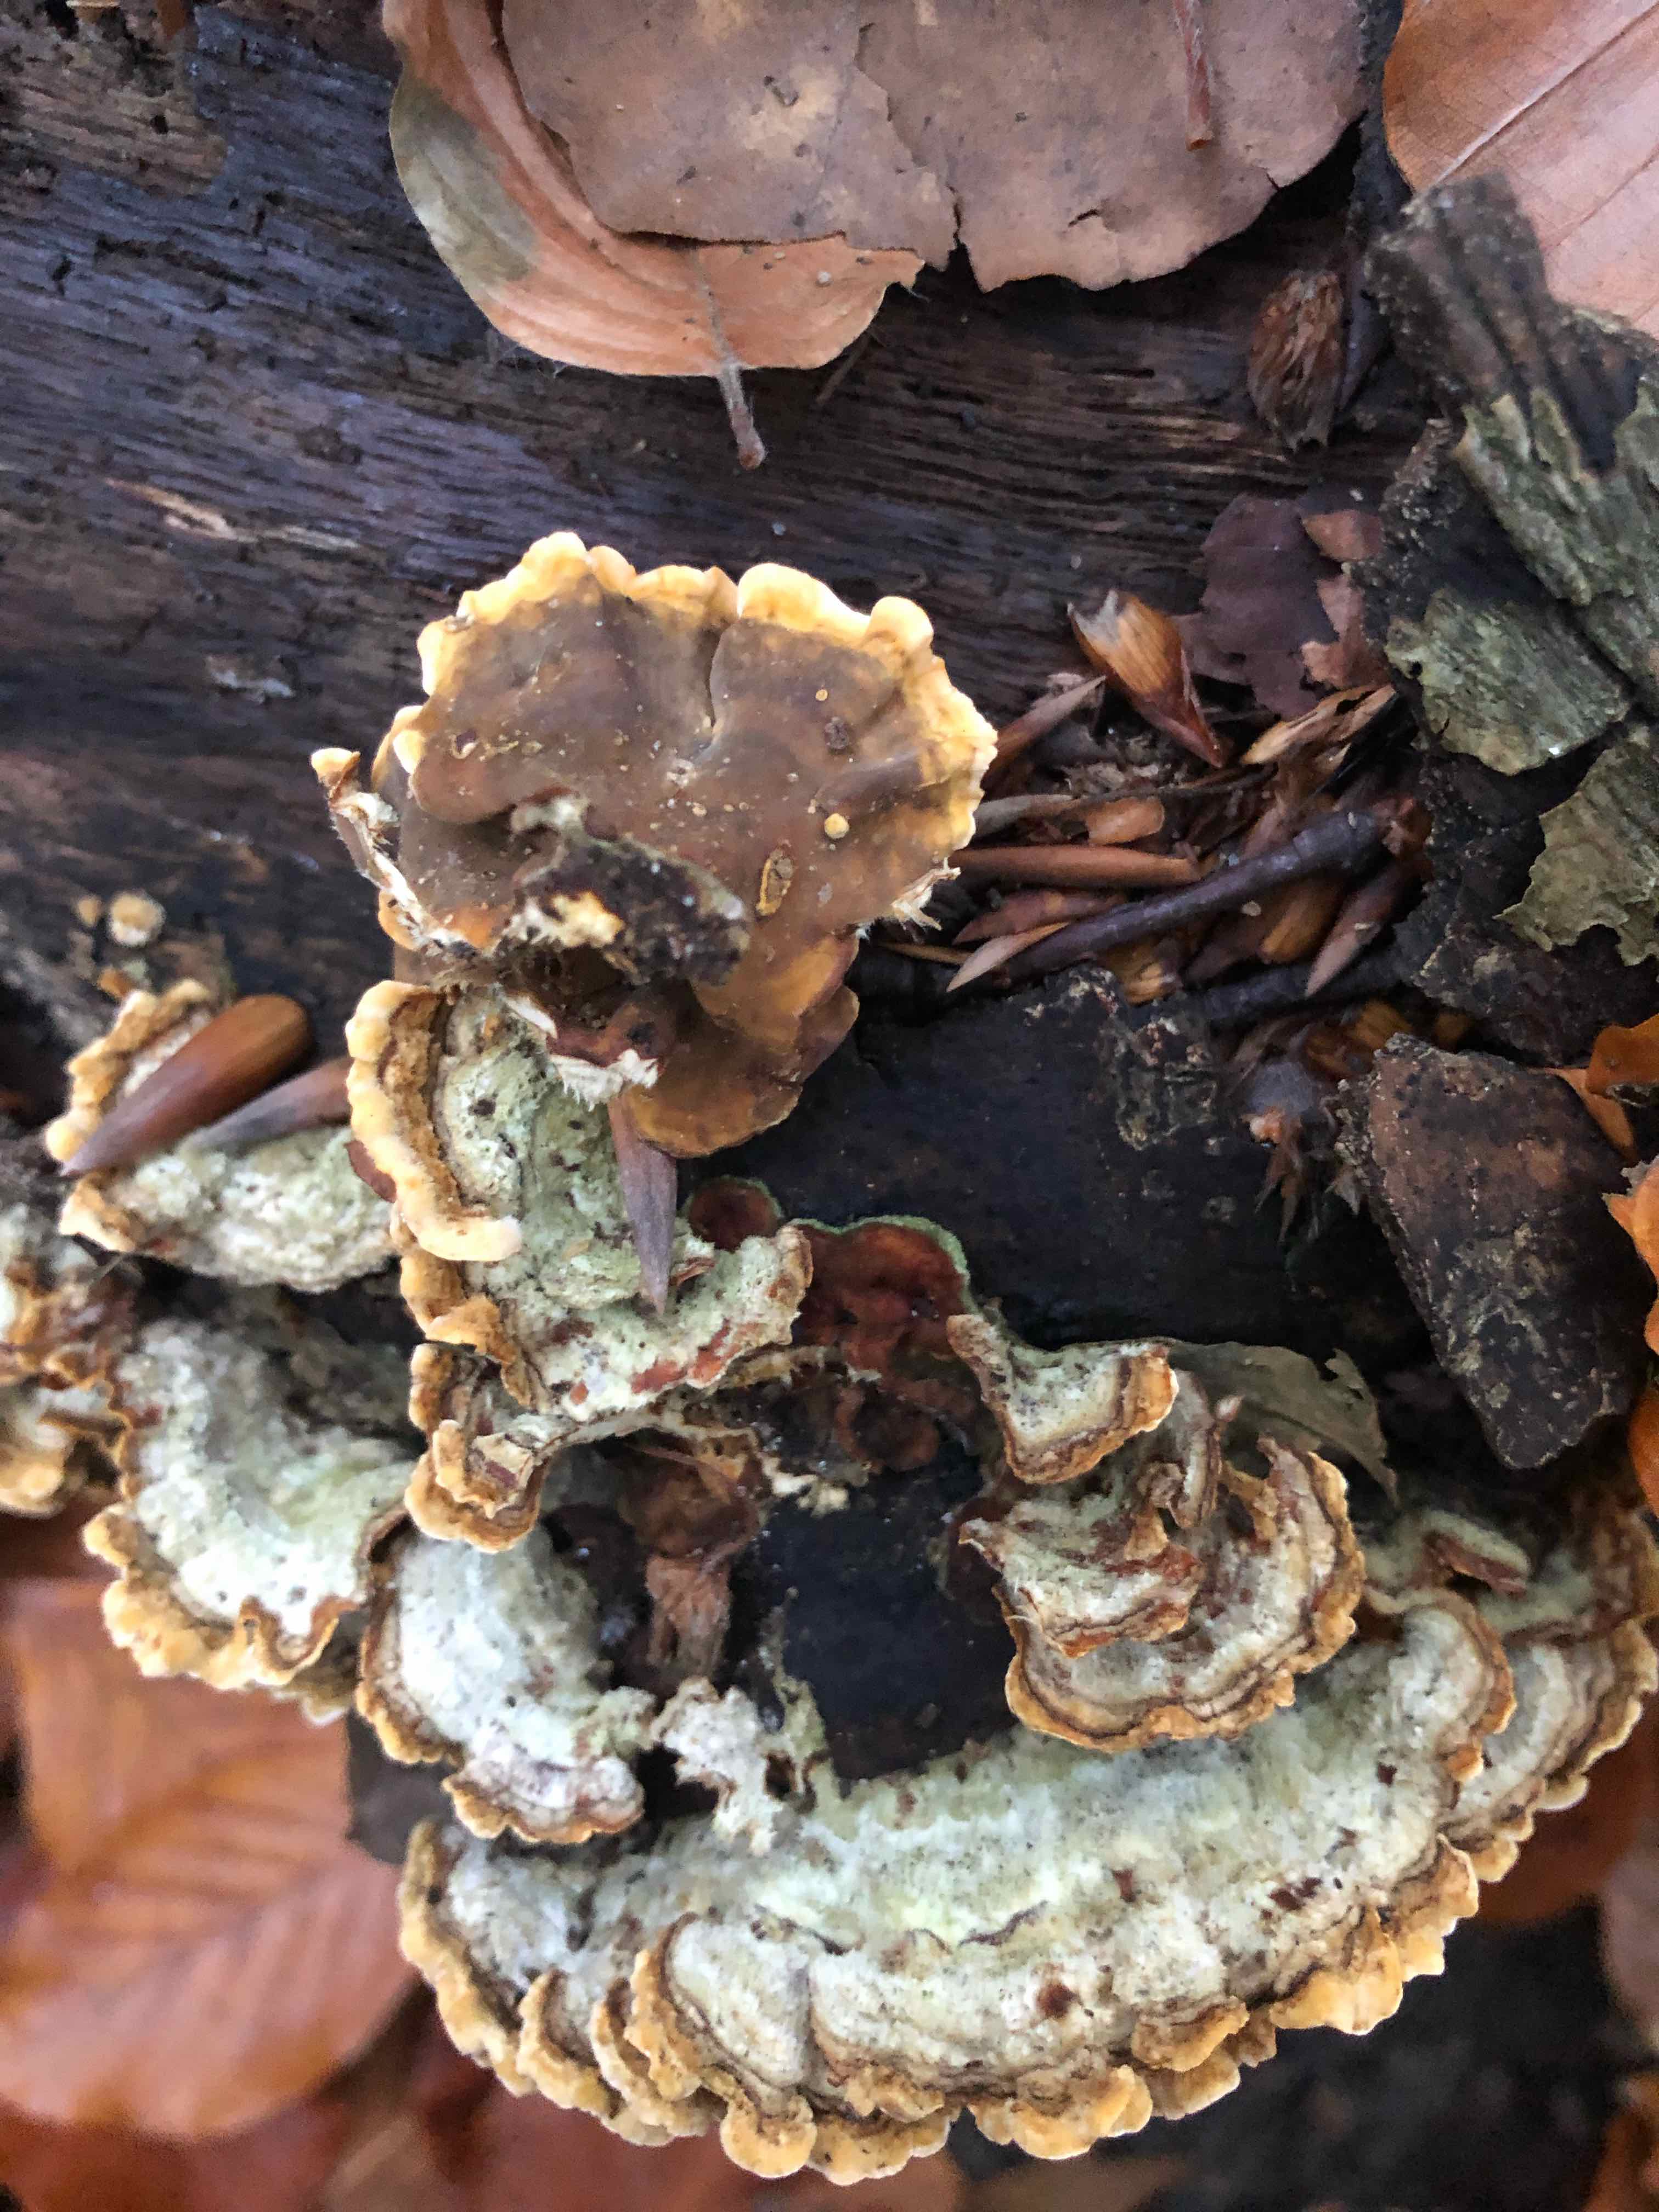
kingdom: Fungi
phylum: Basidiomycota
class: Agaricomycetes
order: Russulales
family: Stereaceae
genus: Stereum
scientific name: Stereum hirsutum
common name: håret lædersvamp
